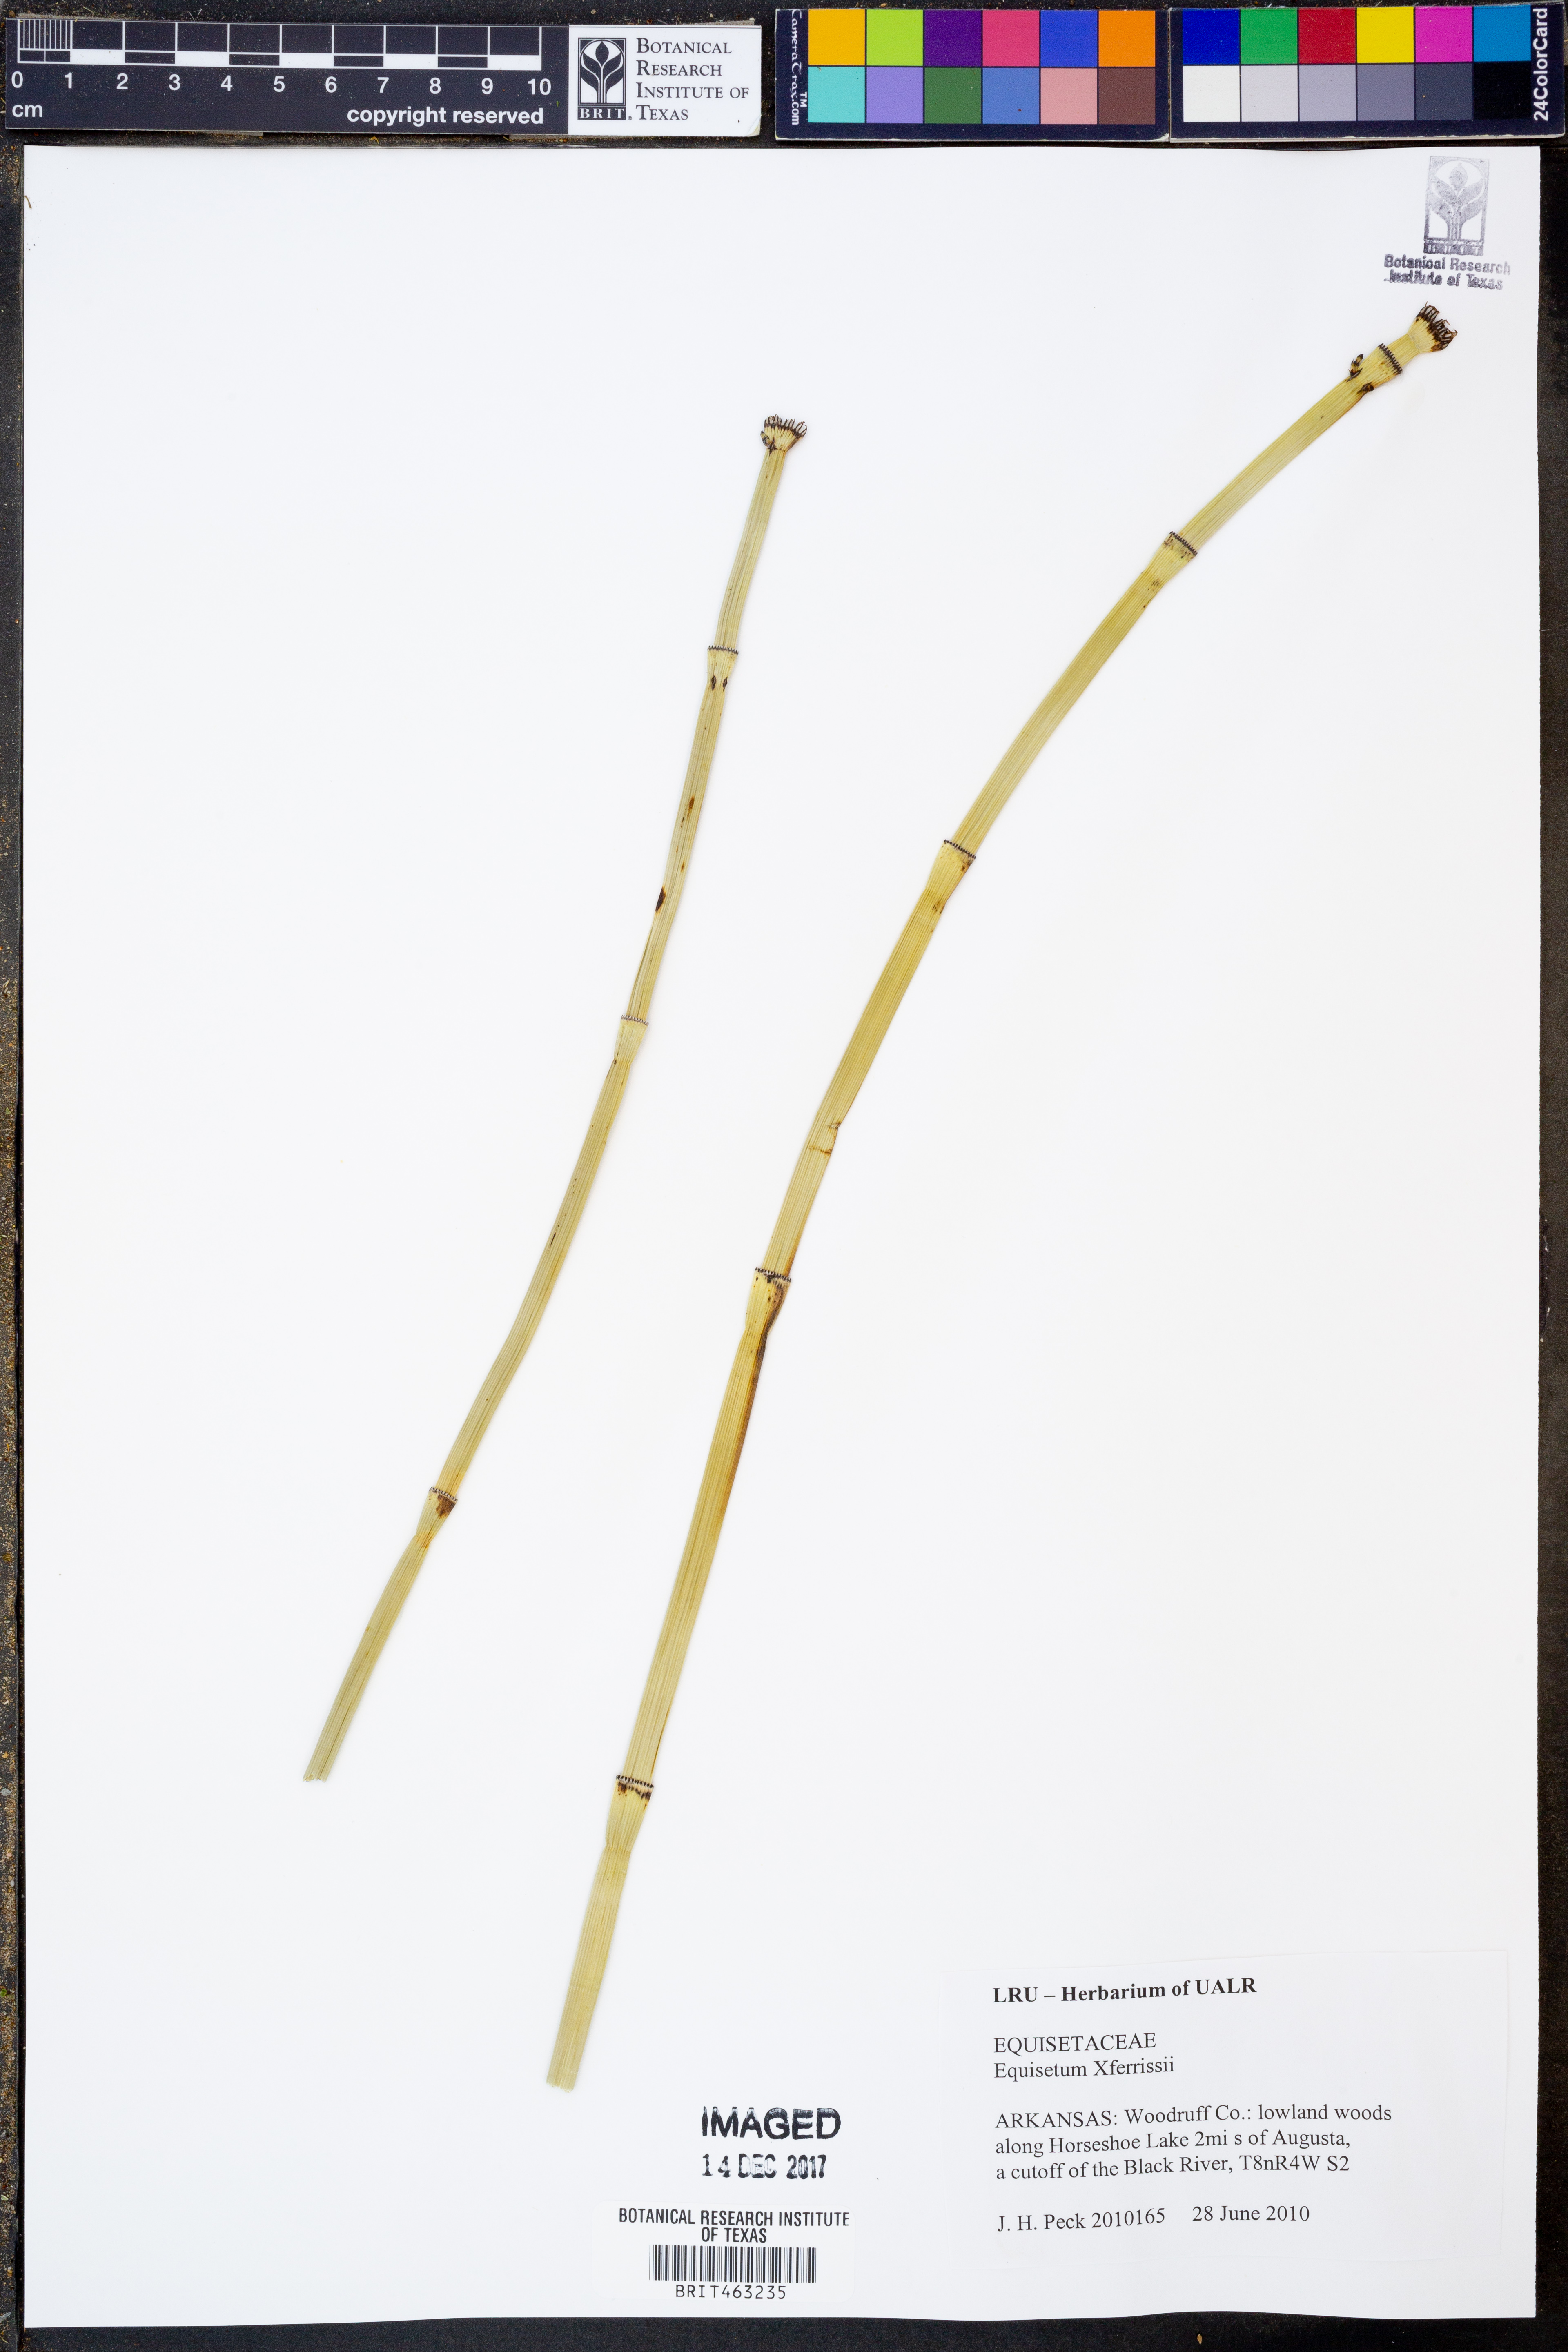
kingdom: Plantae
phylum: Tracheophyta
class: Polypodiopsida
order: Equisetales
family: Equisetaceae
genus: Equisetum
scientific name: Equisetum ferrissii
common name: Ferriss' horsetail
